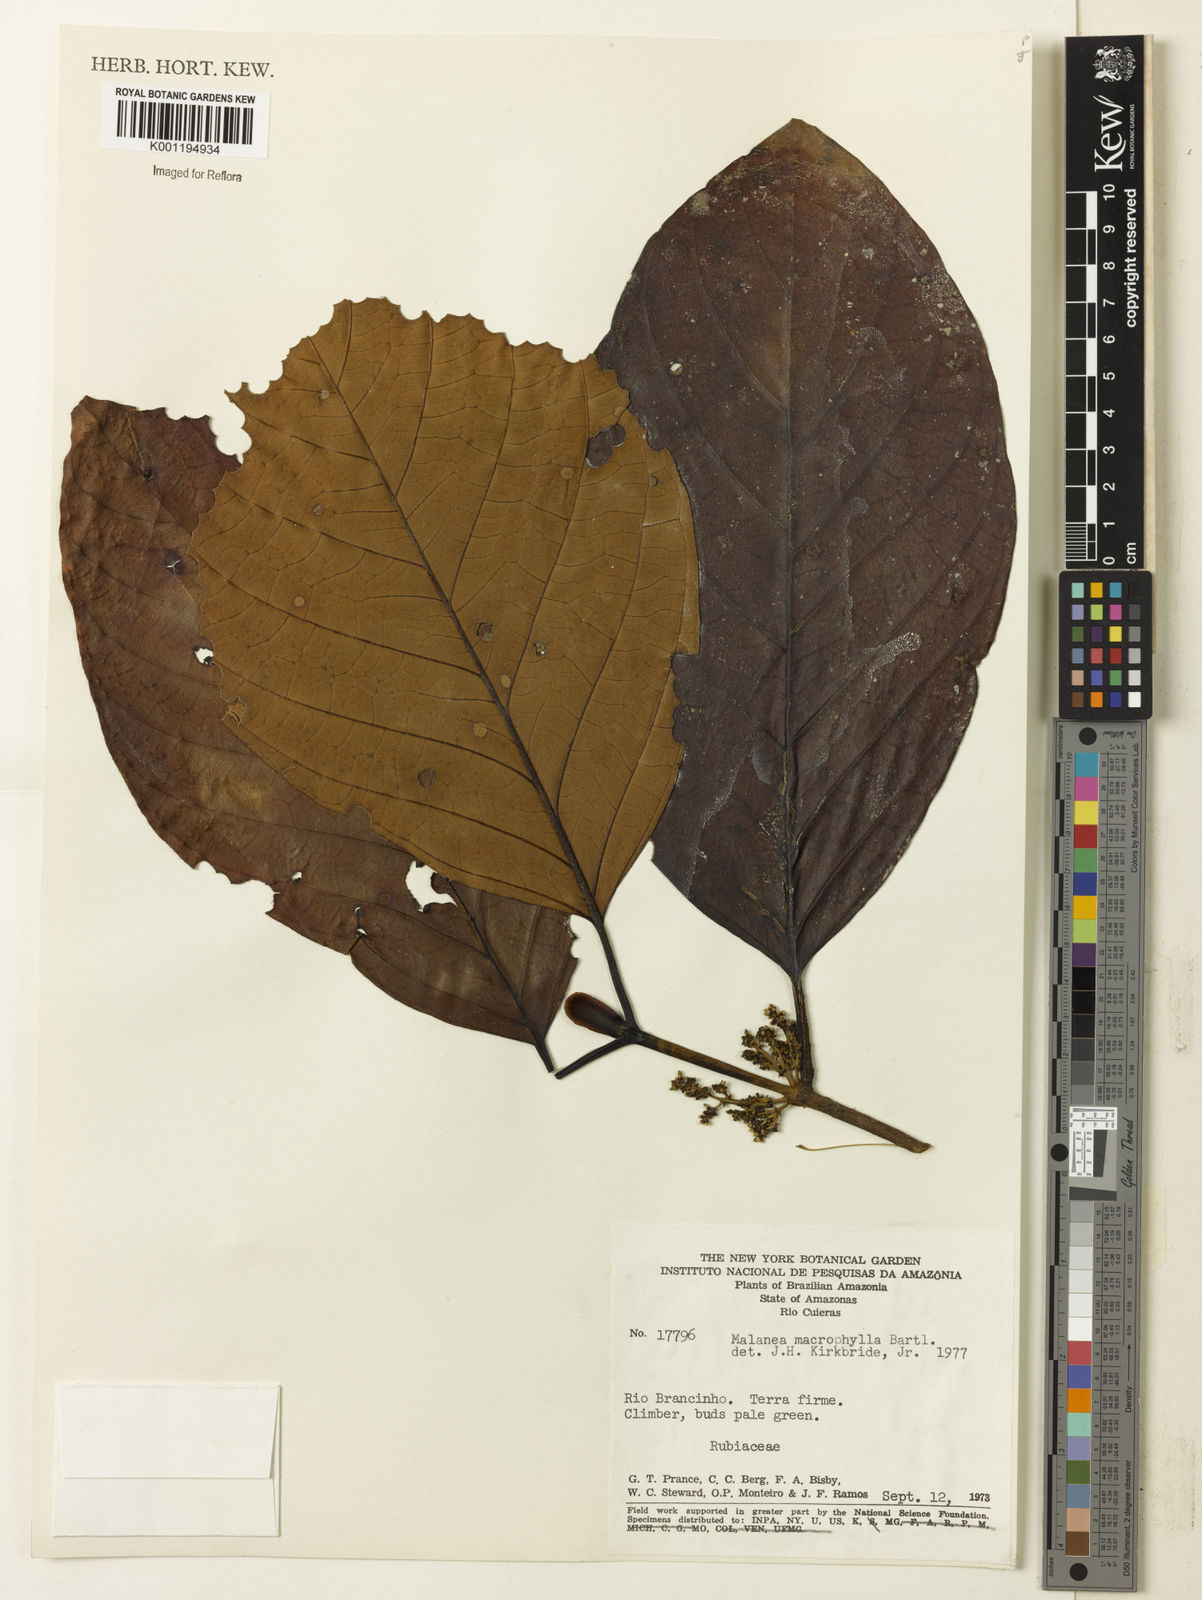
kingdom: Plantae
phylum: Tracheophyta
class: Magnoliopsida
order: Gentianales
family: Rubiaceae
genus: Malanea
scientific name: Malanea glabra
